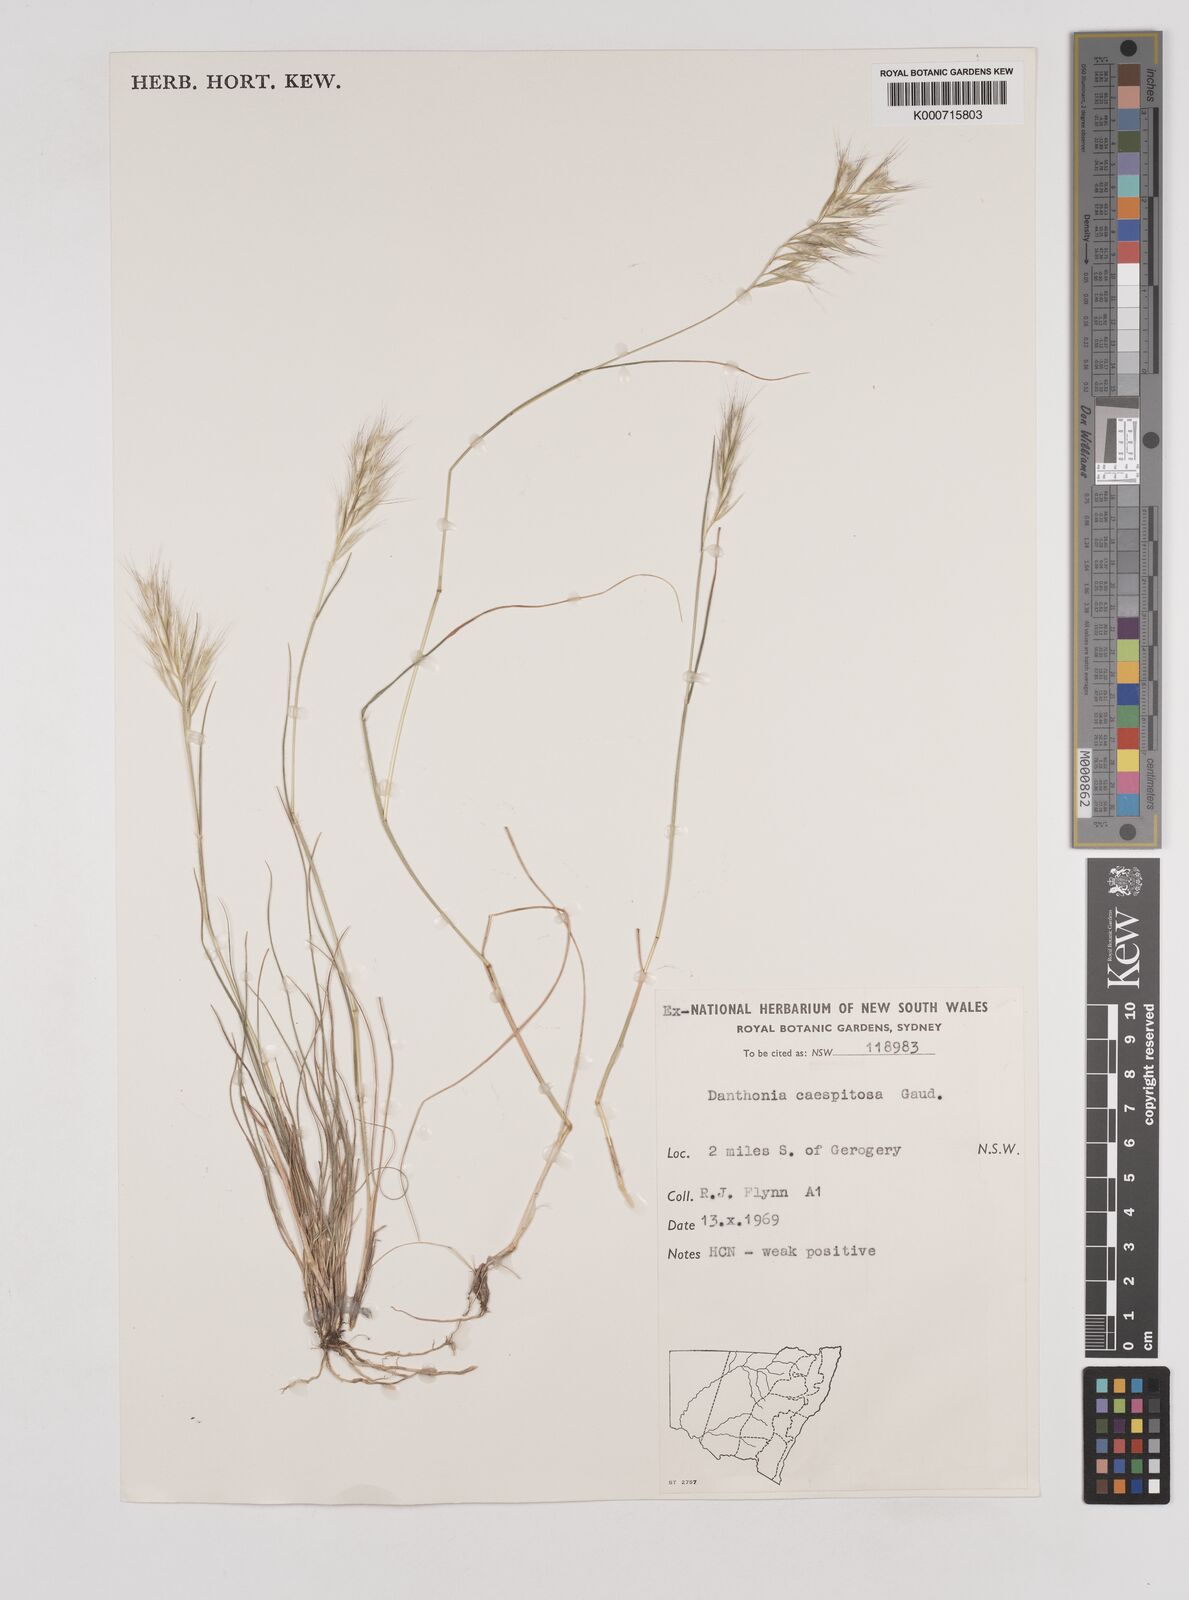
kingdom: Plantae
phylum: Tracheophyta
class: Liliopsida
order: Poales
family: Poaceae
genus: Rytidosperma
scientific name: Rytidosperma caespitosum
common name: Tufted wallaby grass
